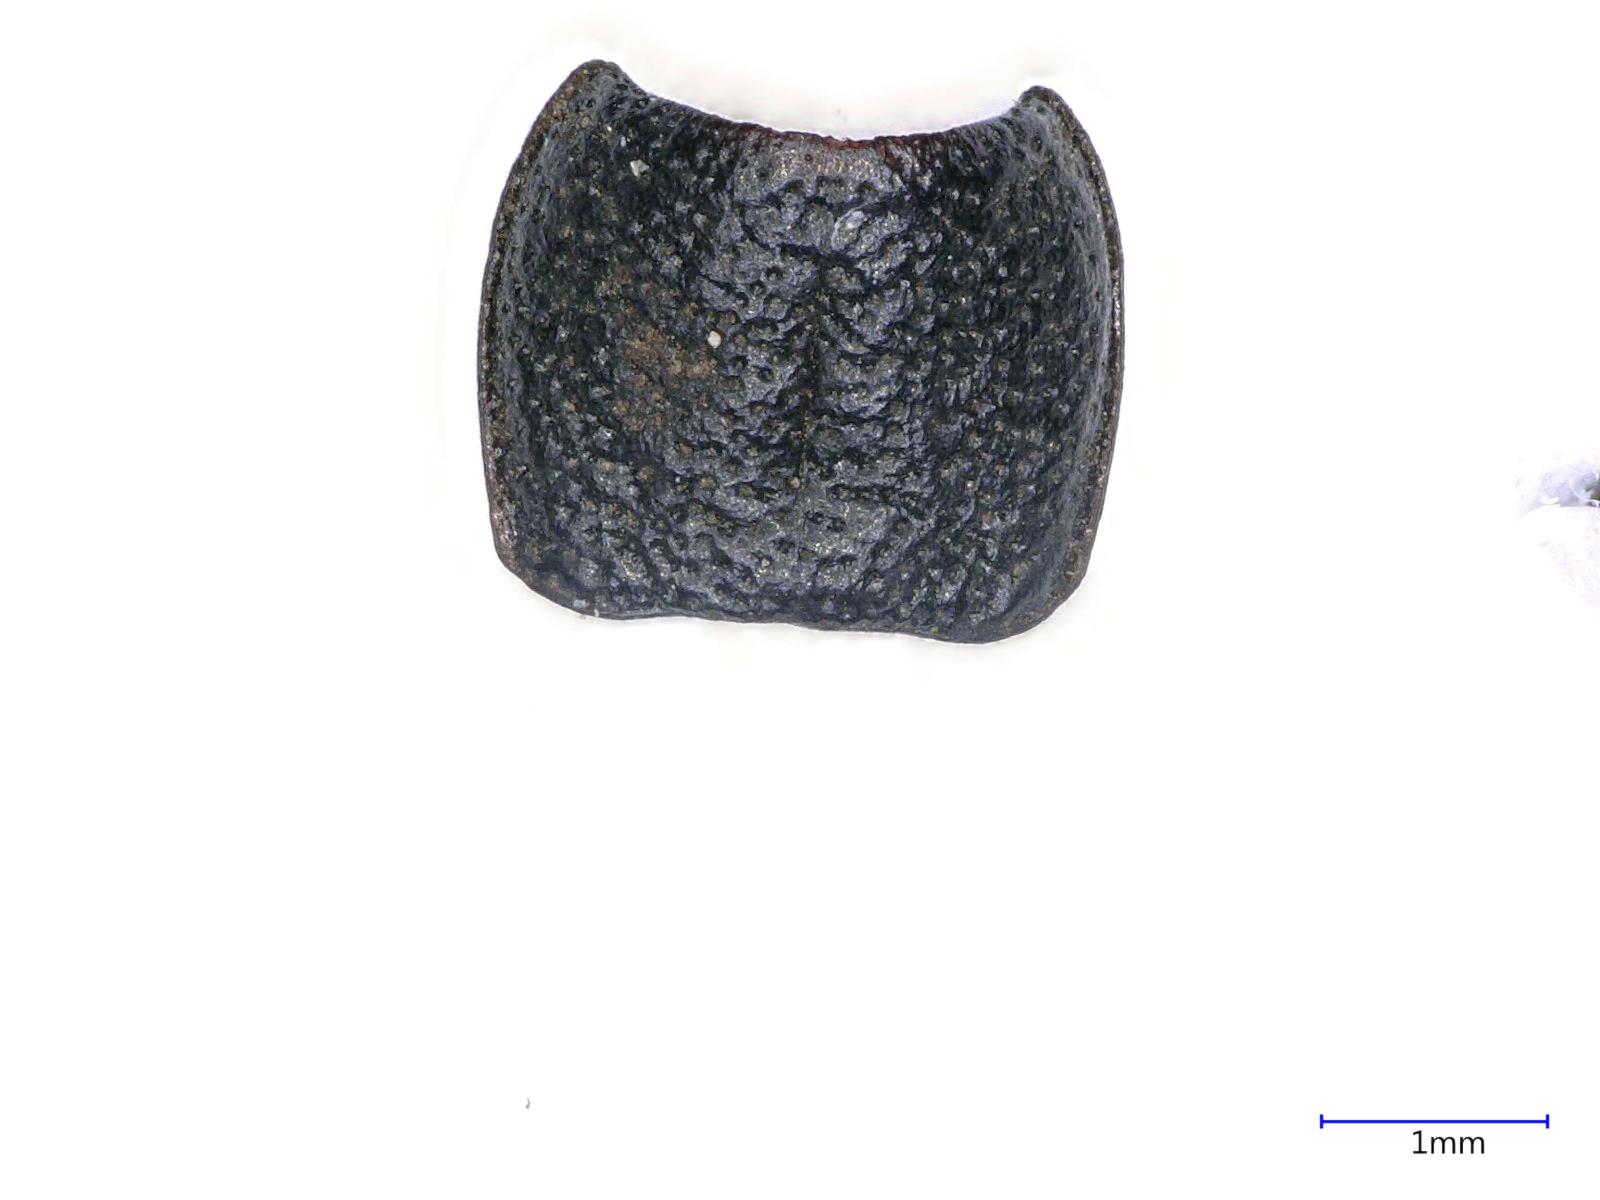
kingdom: Animalia
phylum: Arthropoda
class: Insecta
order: Coleoptera
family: Carabidae
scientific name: Carabidae
